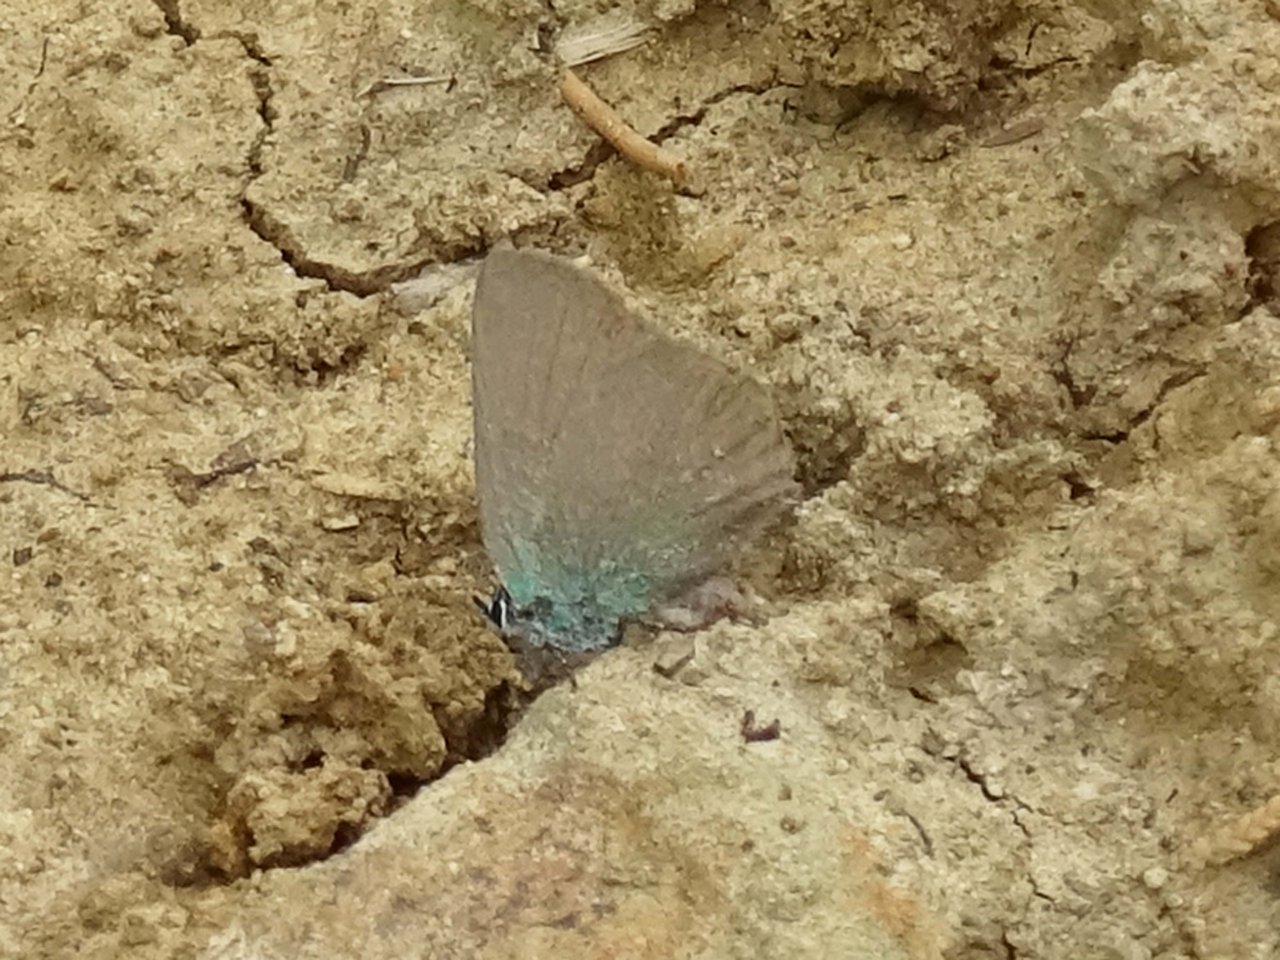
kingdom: Animalia
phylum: Arthropoda
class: Insecta
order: Lepidoptera
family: Lycaenidae
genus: Callophrys
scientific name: Callophrys affinis
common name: Western Green Hairstreak
